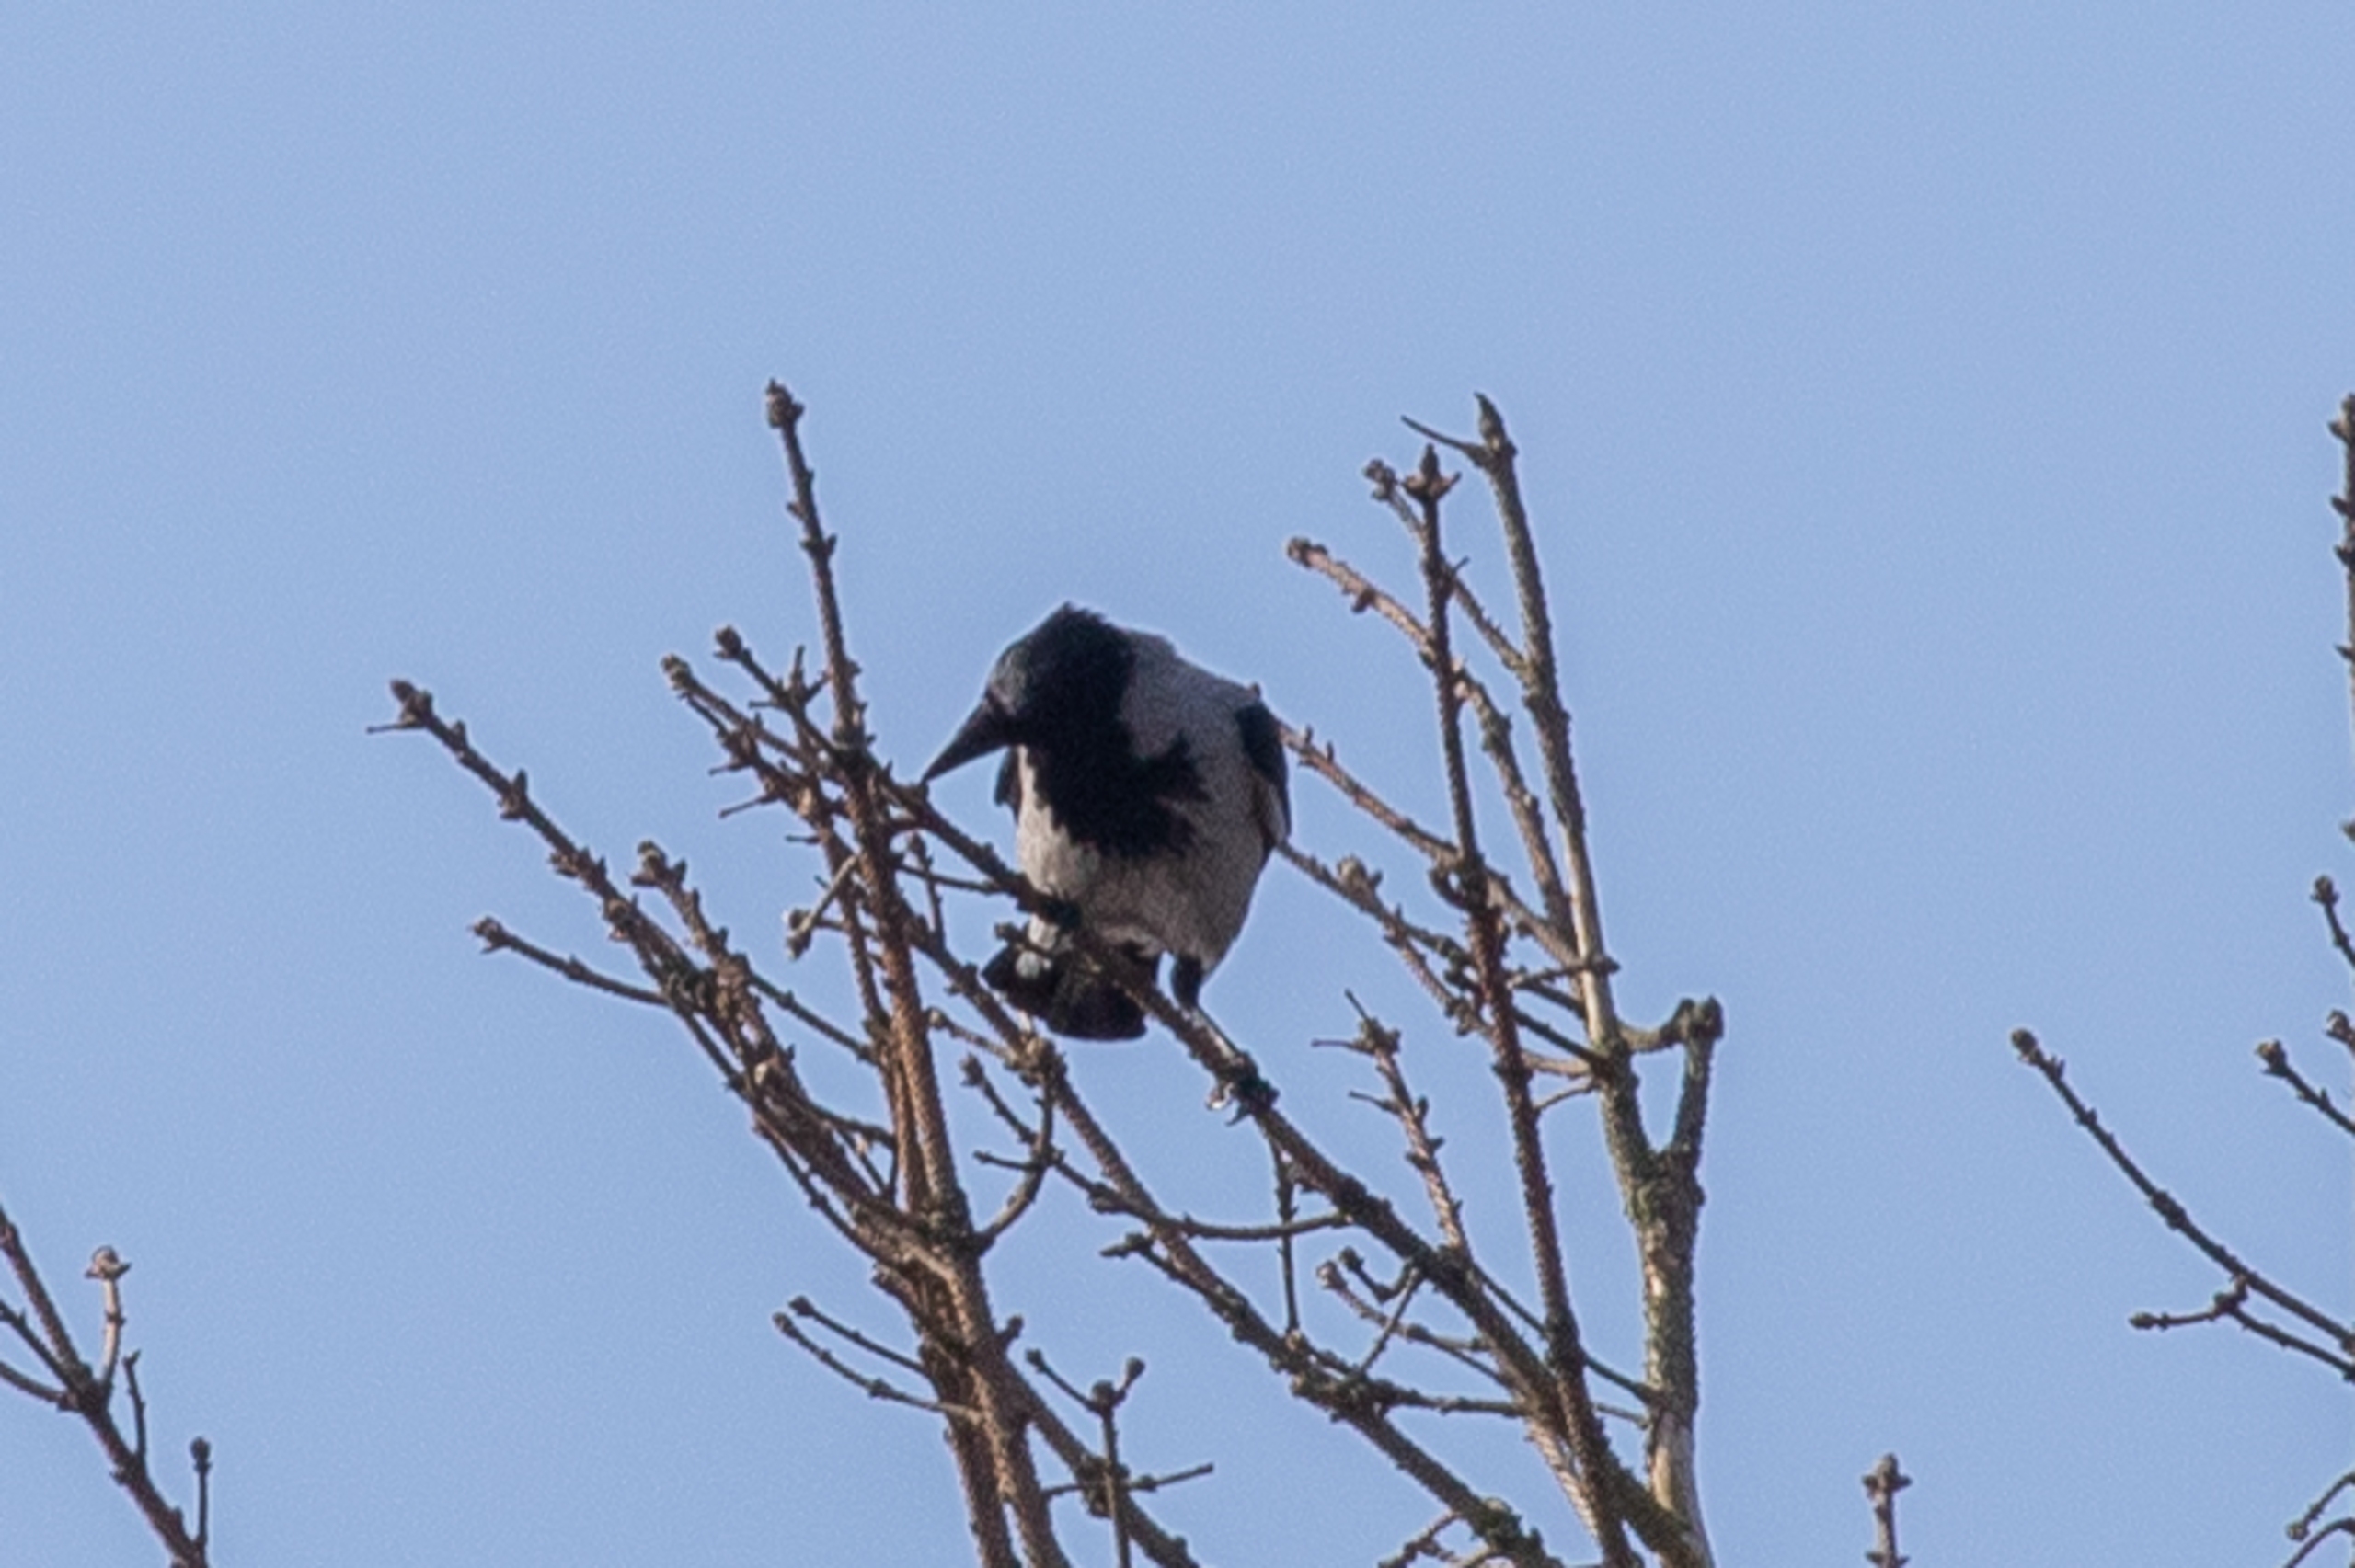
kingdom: Animalia
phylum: Chordata
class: Aves
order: Passeriformes
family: Corvidae
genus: Corvus
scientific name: Corvus cornix
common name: Gråkrage
